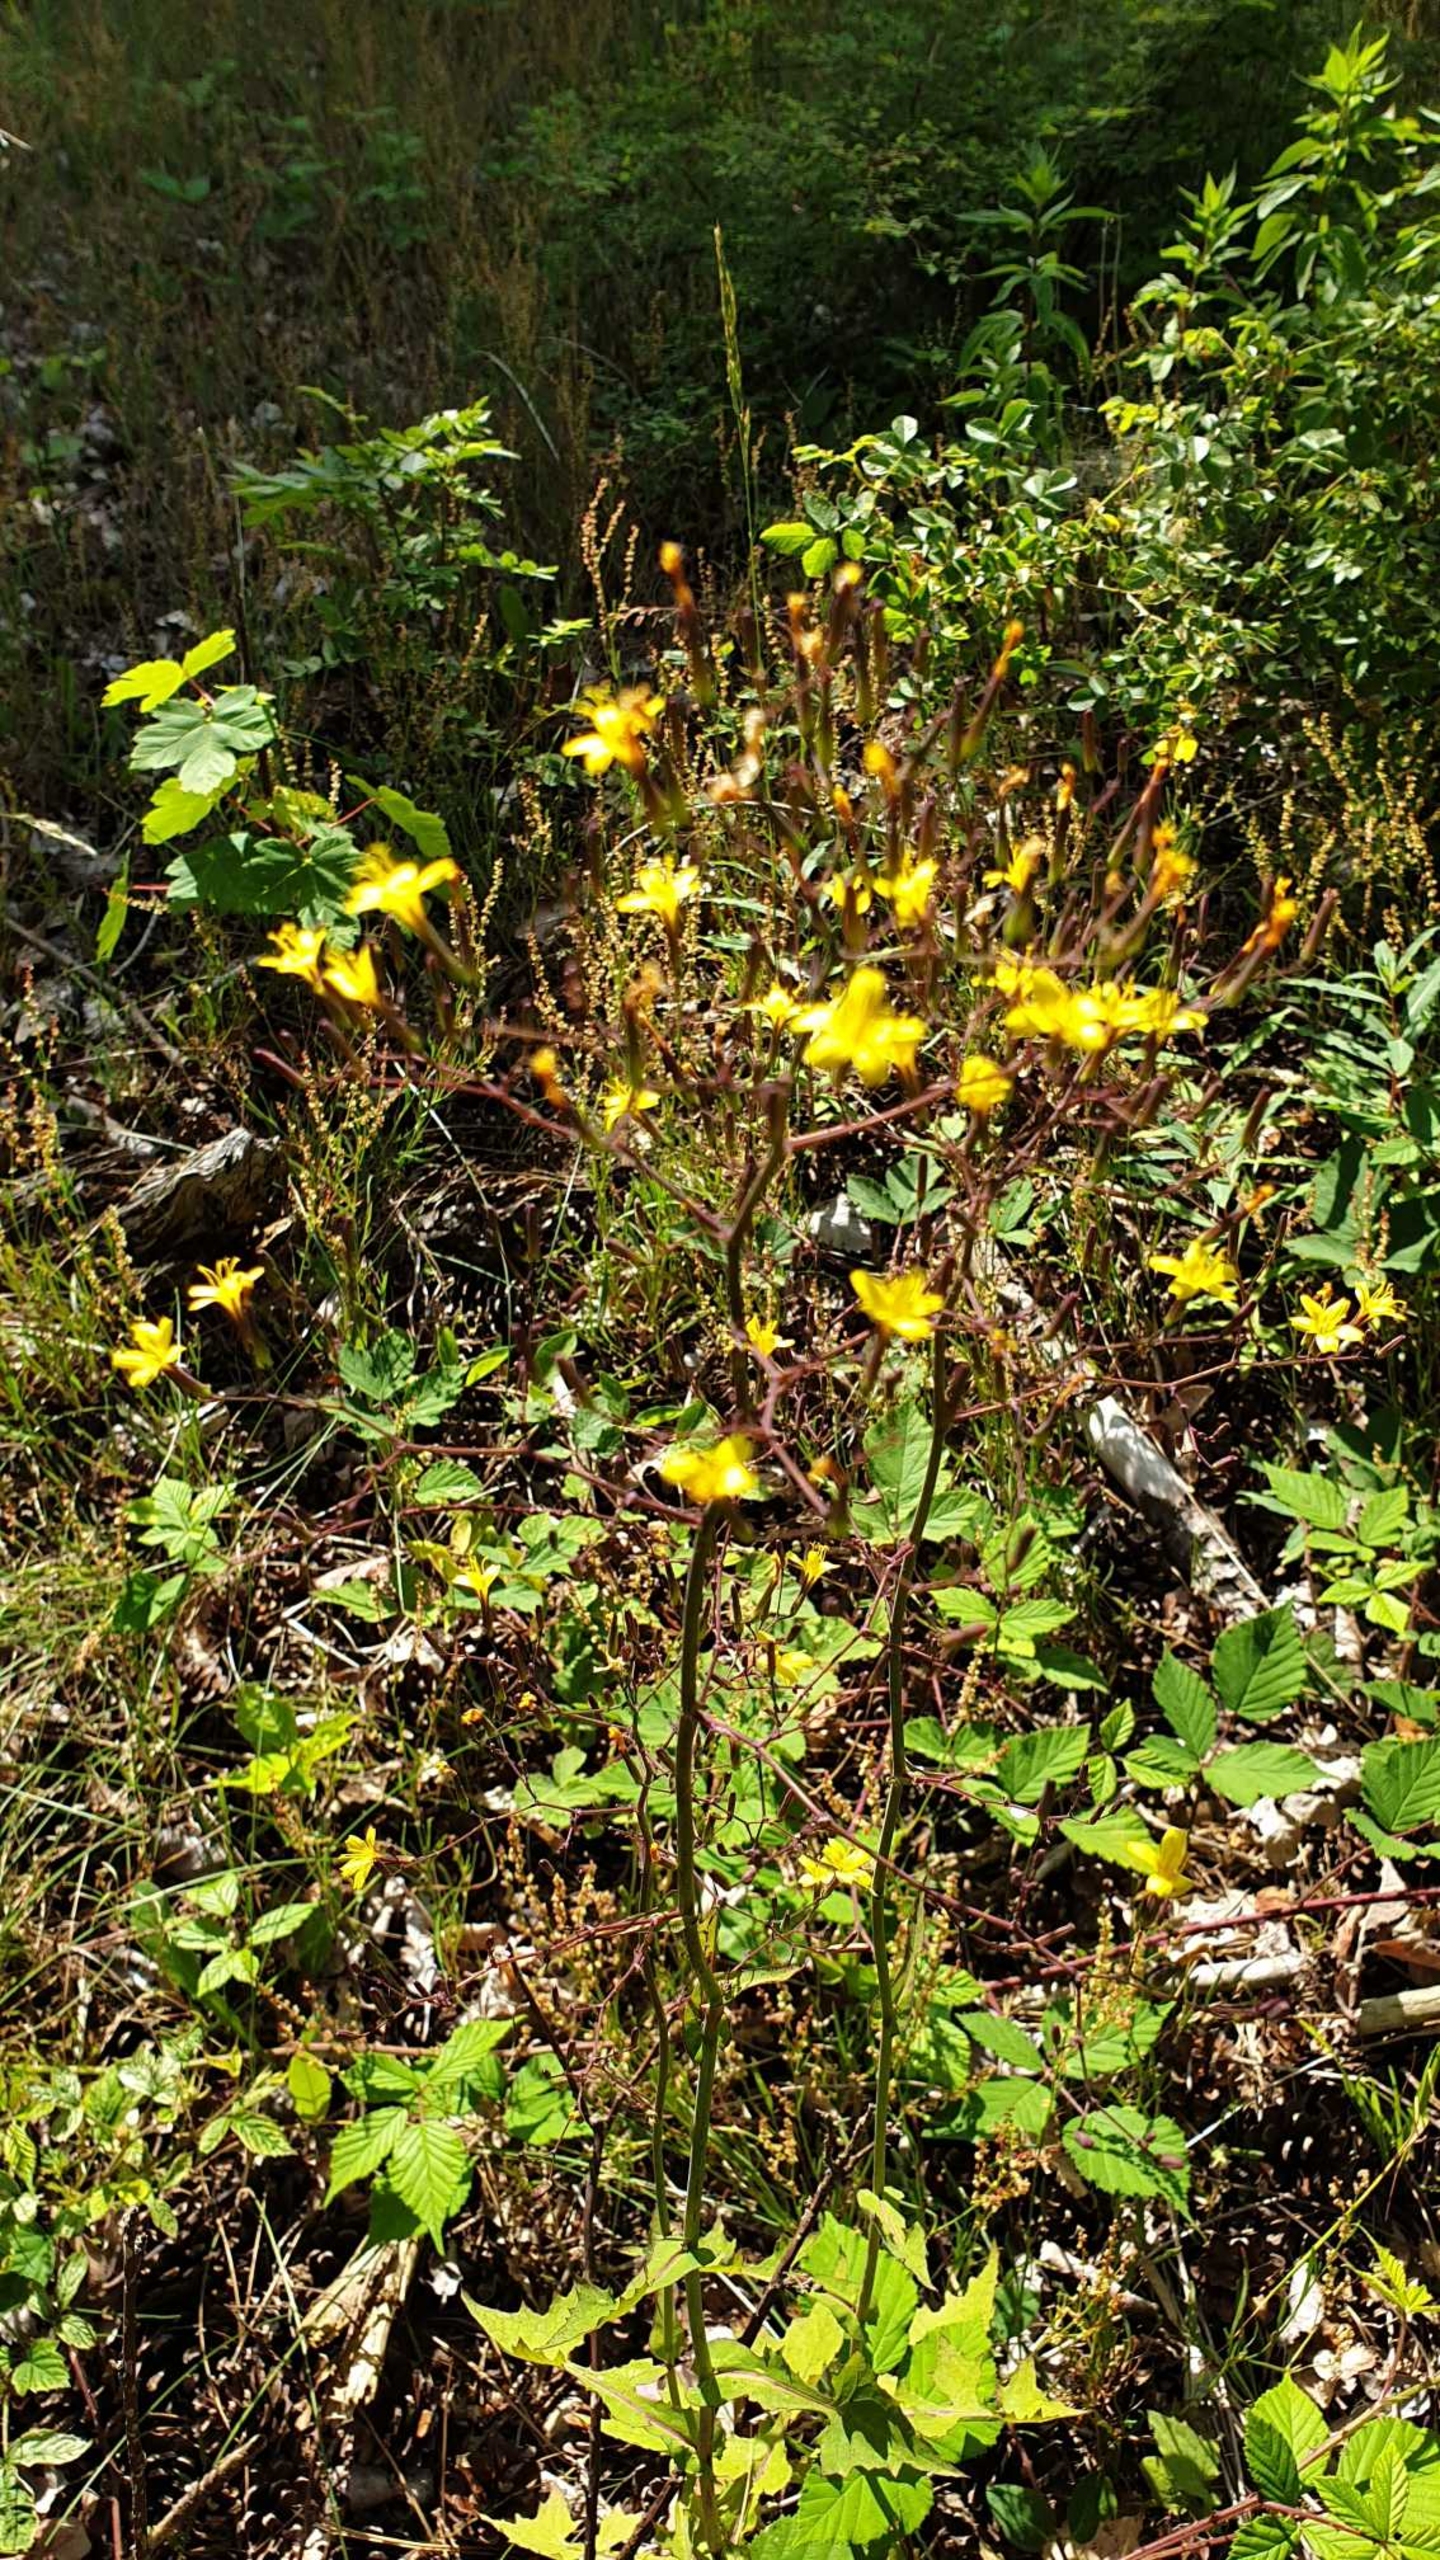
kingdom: Plantae
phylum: Tracheophyta
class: Magnoliopsida
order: Asterales
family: Asteraceae
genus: Mycelis
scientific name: Mycelis muralis
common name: Skov-salat
